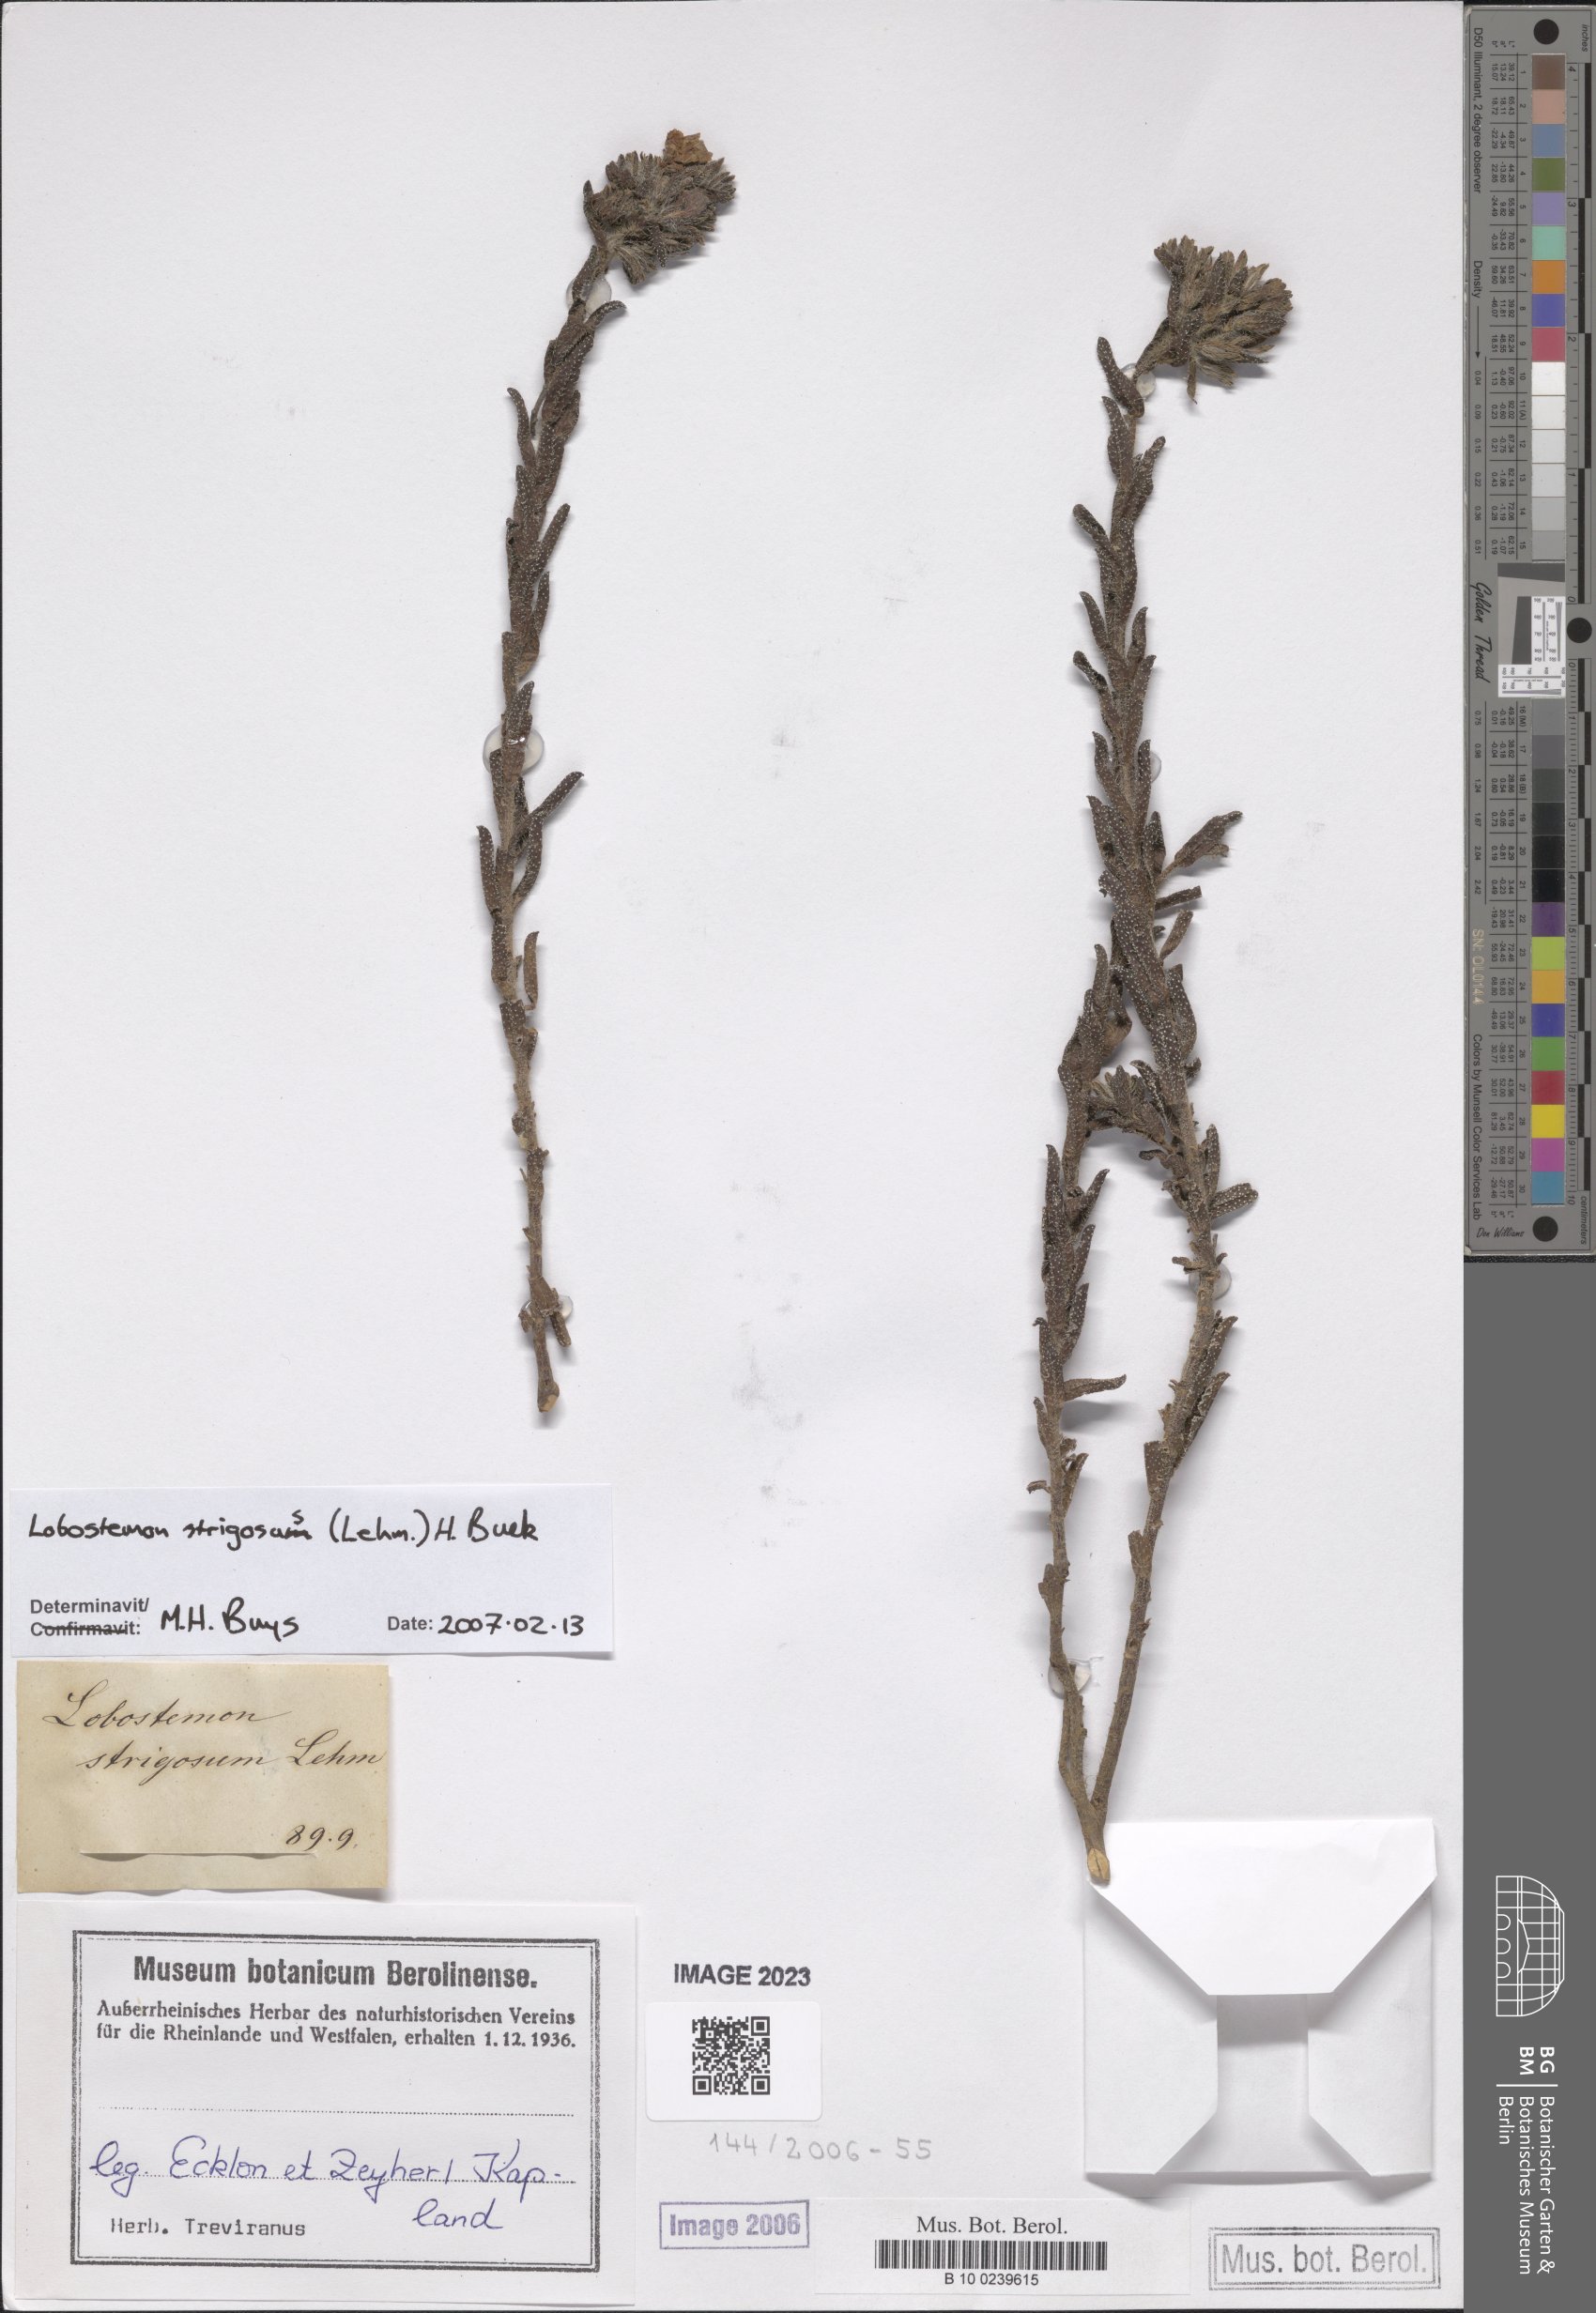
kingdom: Plantae
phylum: Tracheophyta
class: Magnoliopsida
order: Boraginales
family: Boraginaceae
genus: Lobostemon
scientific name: Lobostemon strigosus
